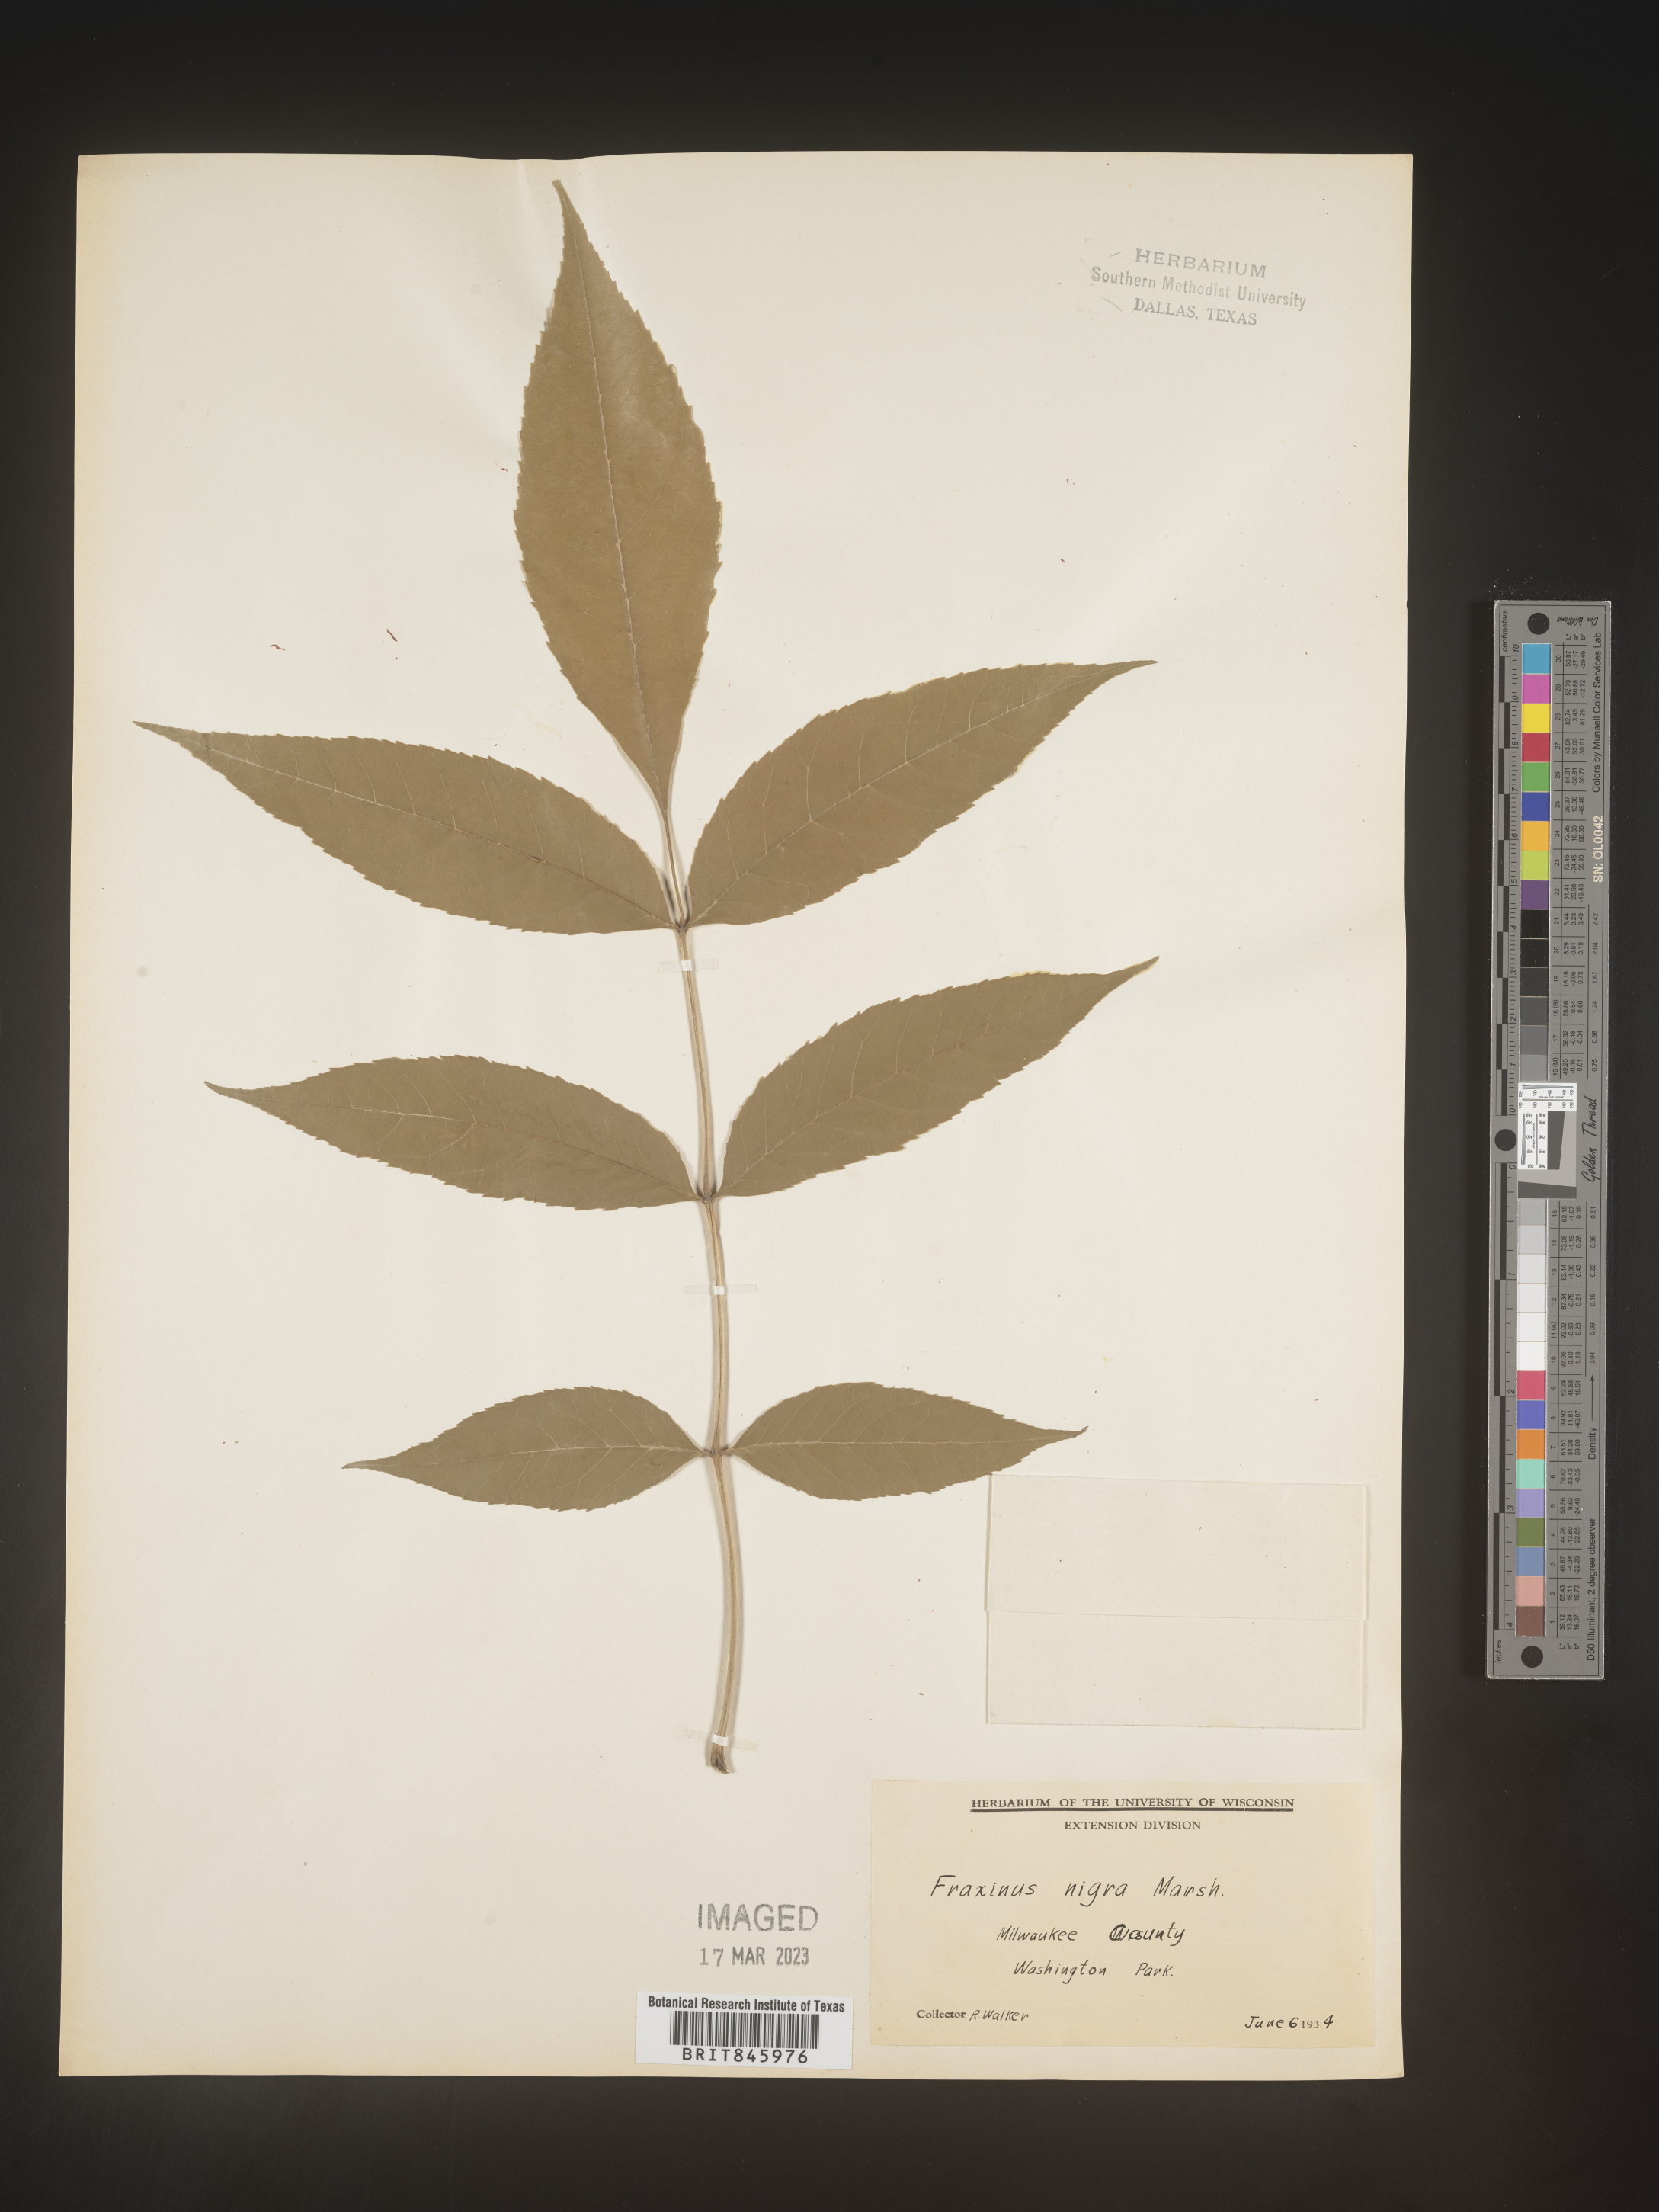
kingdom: Plantae
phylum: Tracheophyta
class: Magnoliopsida
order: Lamiales
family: Oleaceae
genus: Fraxinus
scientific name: Fraxinus nigra
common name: Black ash
